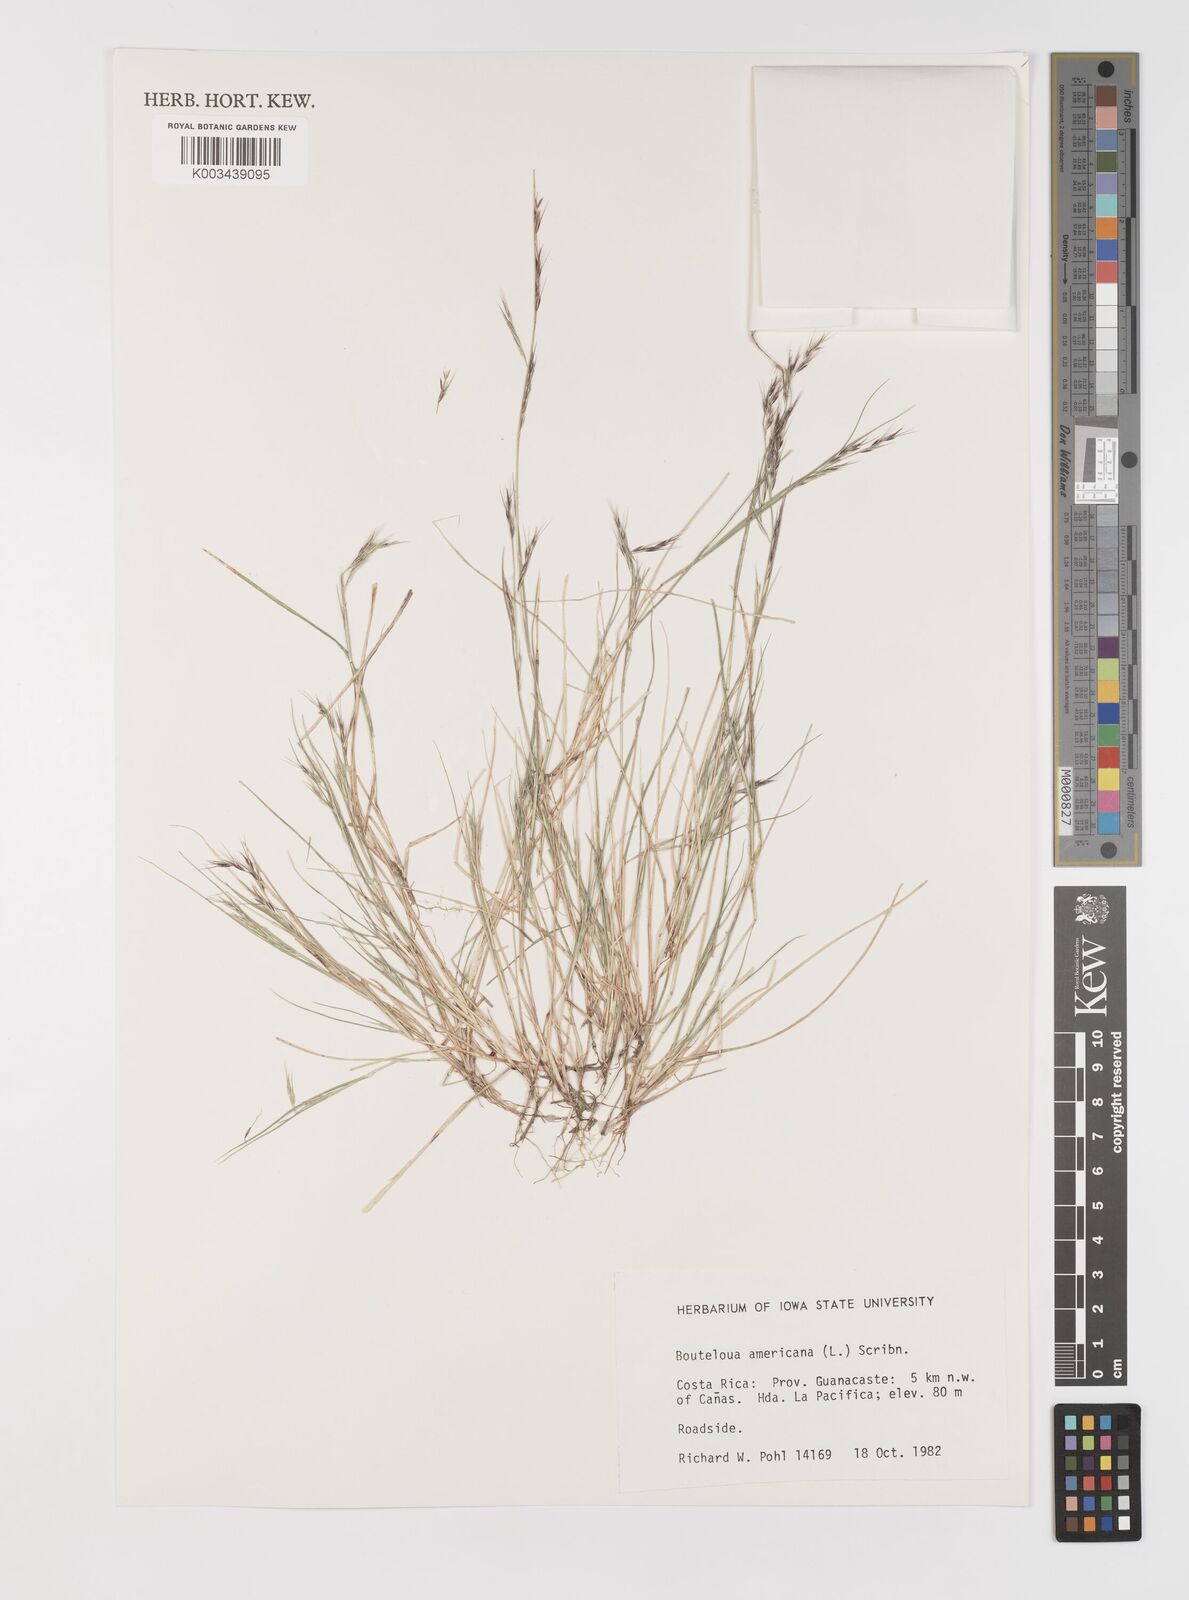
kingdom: Plantae
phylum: Tracheophyta
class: Liliopsida
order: Poales
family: Poaceae
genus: Bouteloua
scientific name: Bouteloua americana
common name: Mule grass
